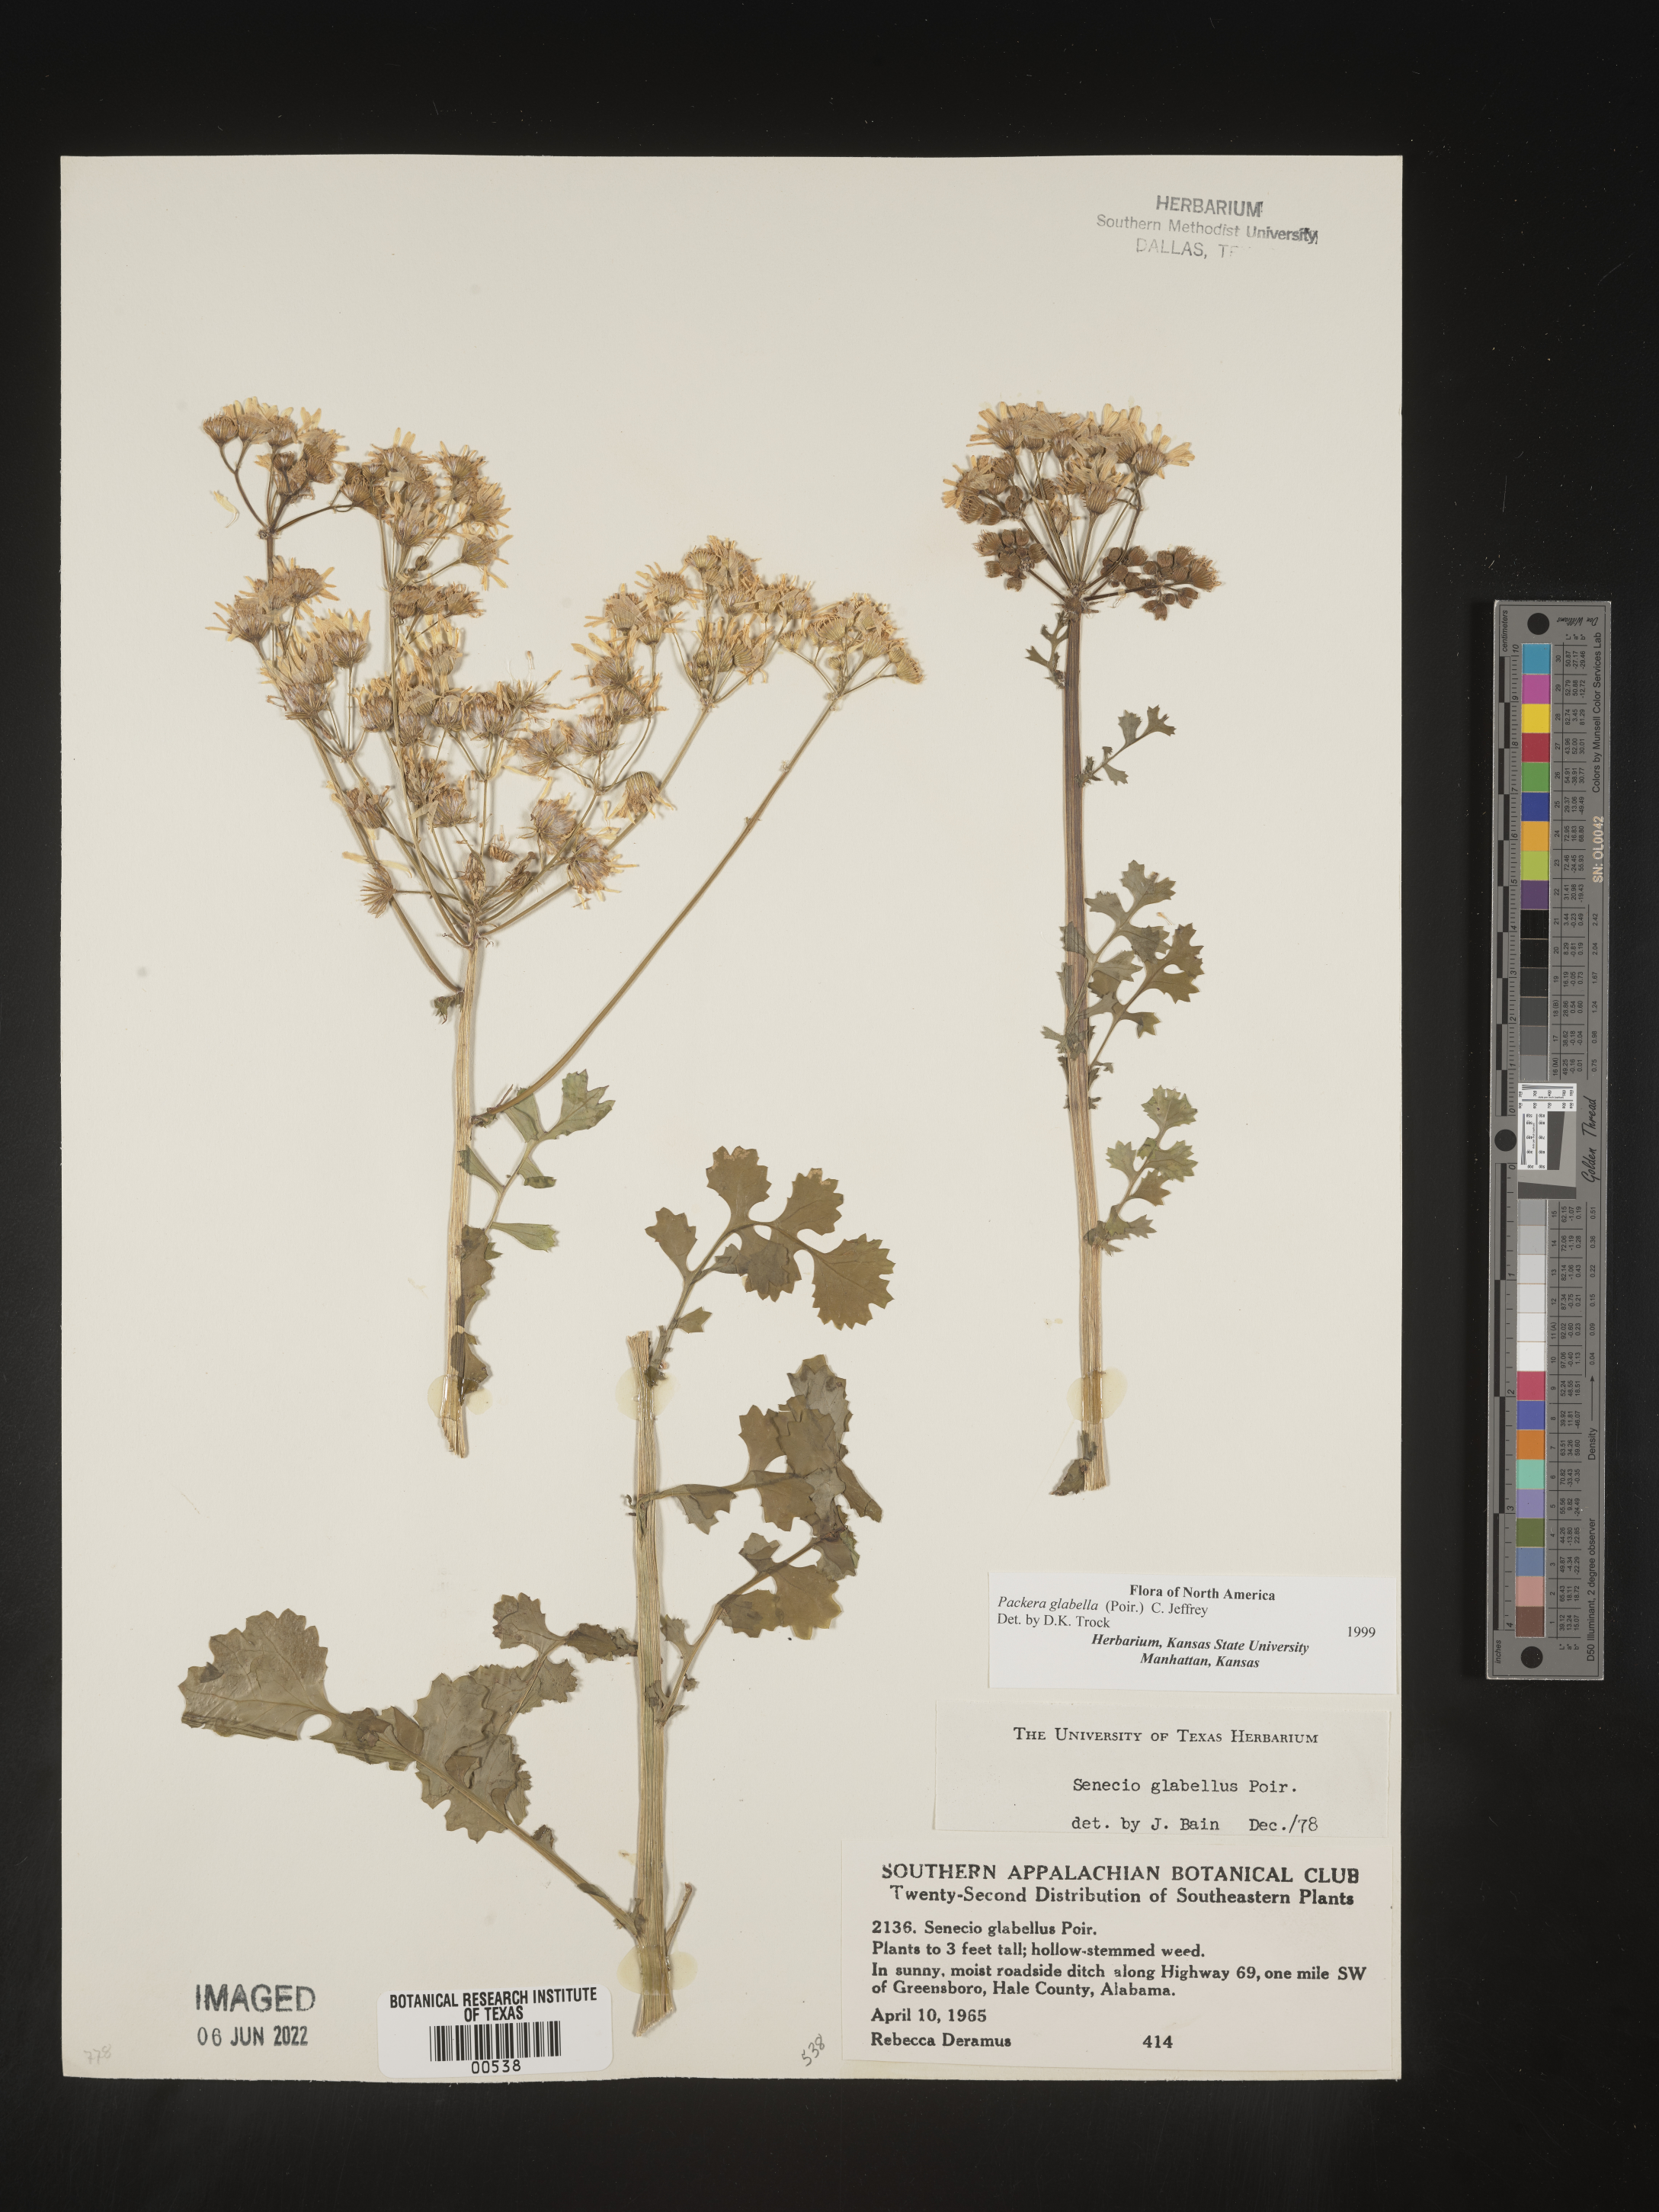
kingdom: Plantae
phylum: Tracheophyta
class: Magnoliopsida
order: Asterales
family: Asteraceae
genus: Packera
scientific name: Packera glabella
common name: Butterweed
